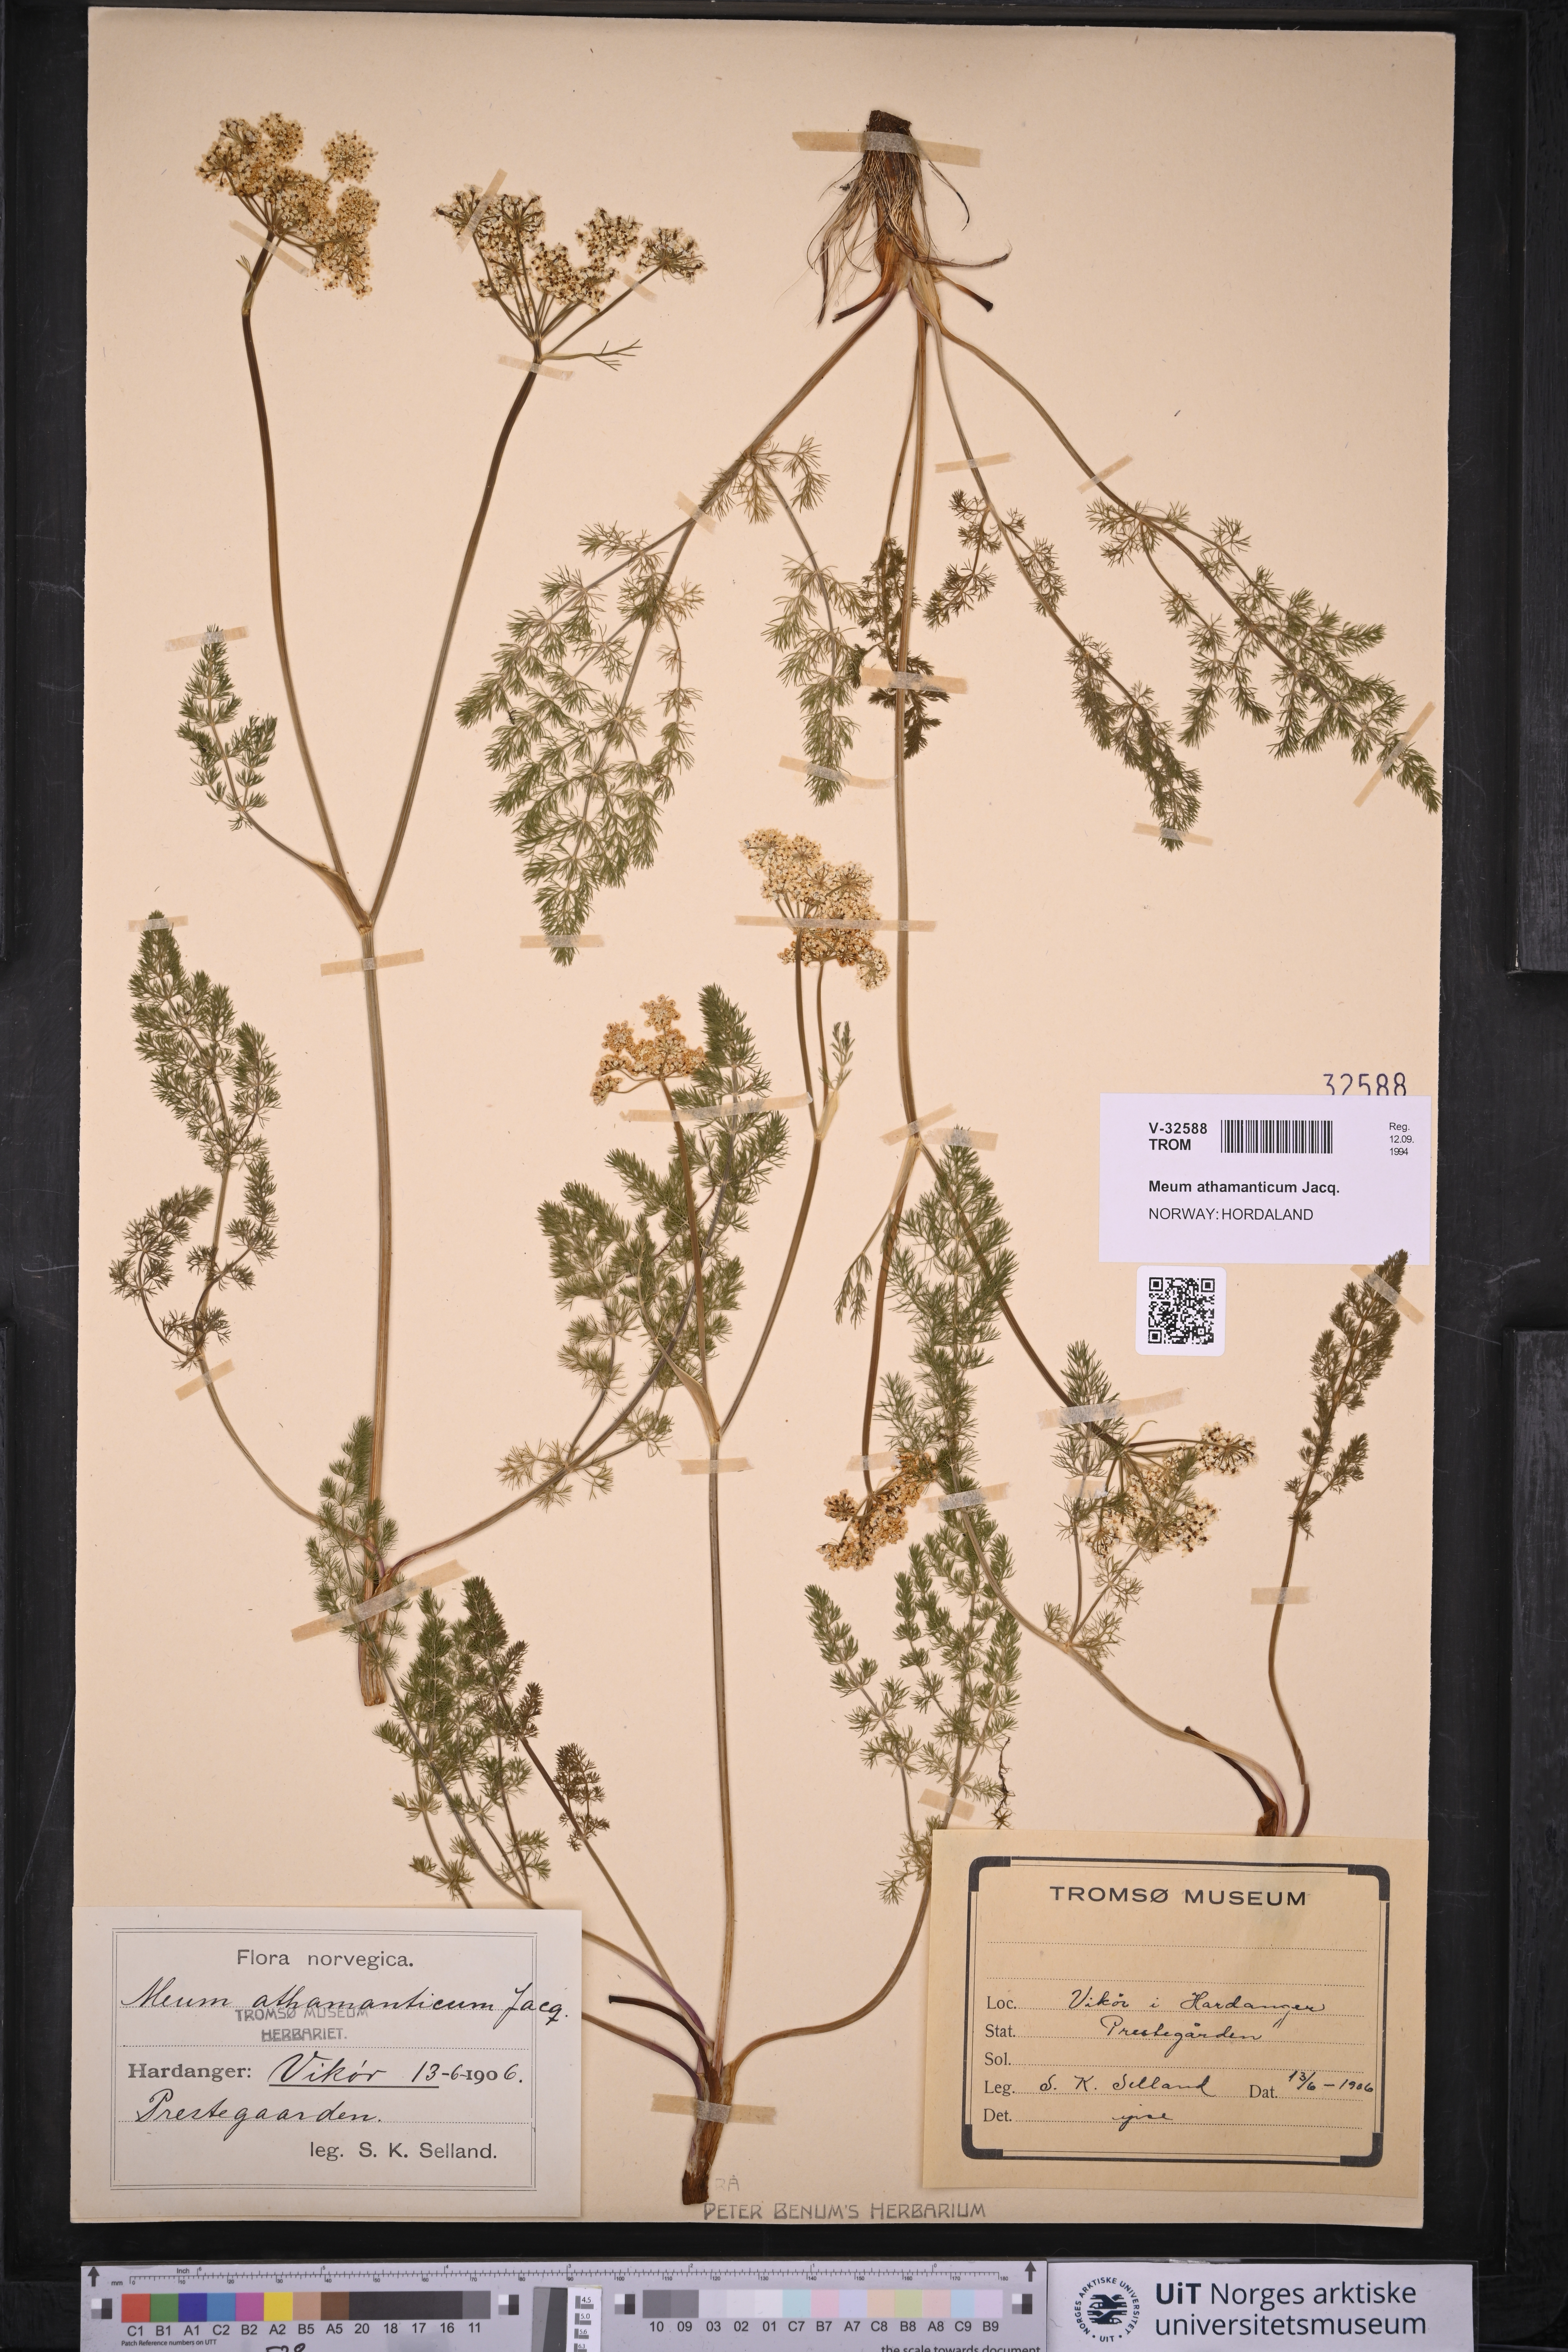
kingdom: Plantae
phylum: Tracheophyta
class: Magnoliopsida
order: Apiales
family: Apiaceae
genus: Meum
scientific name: Meum athamanticum
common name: Spignel
